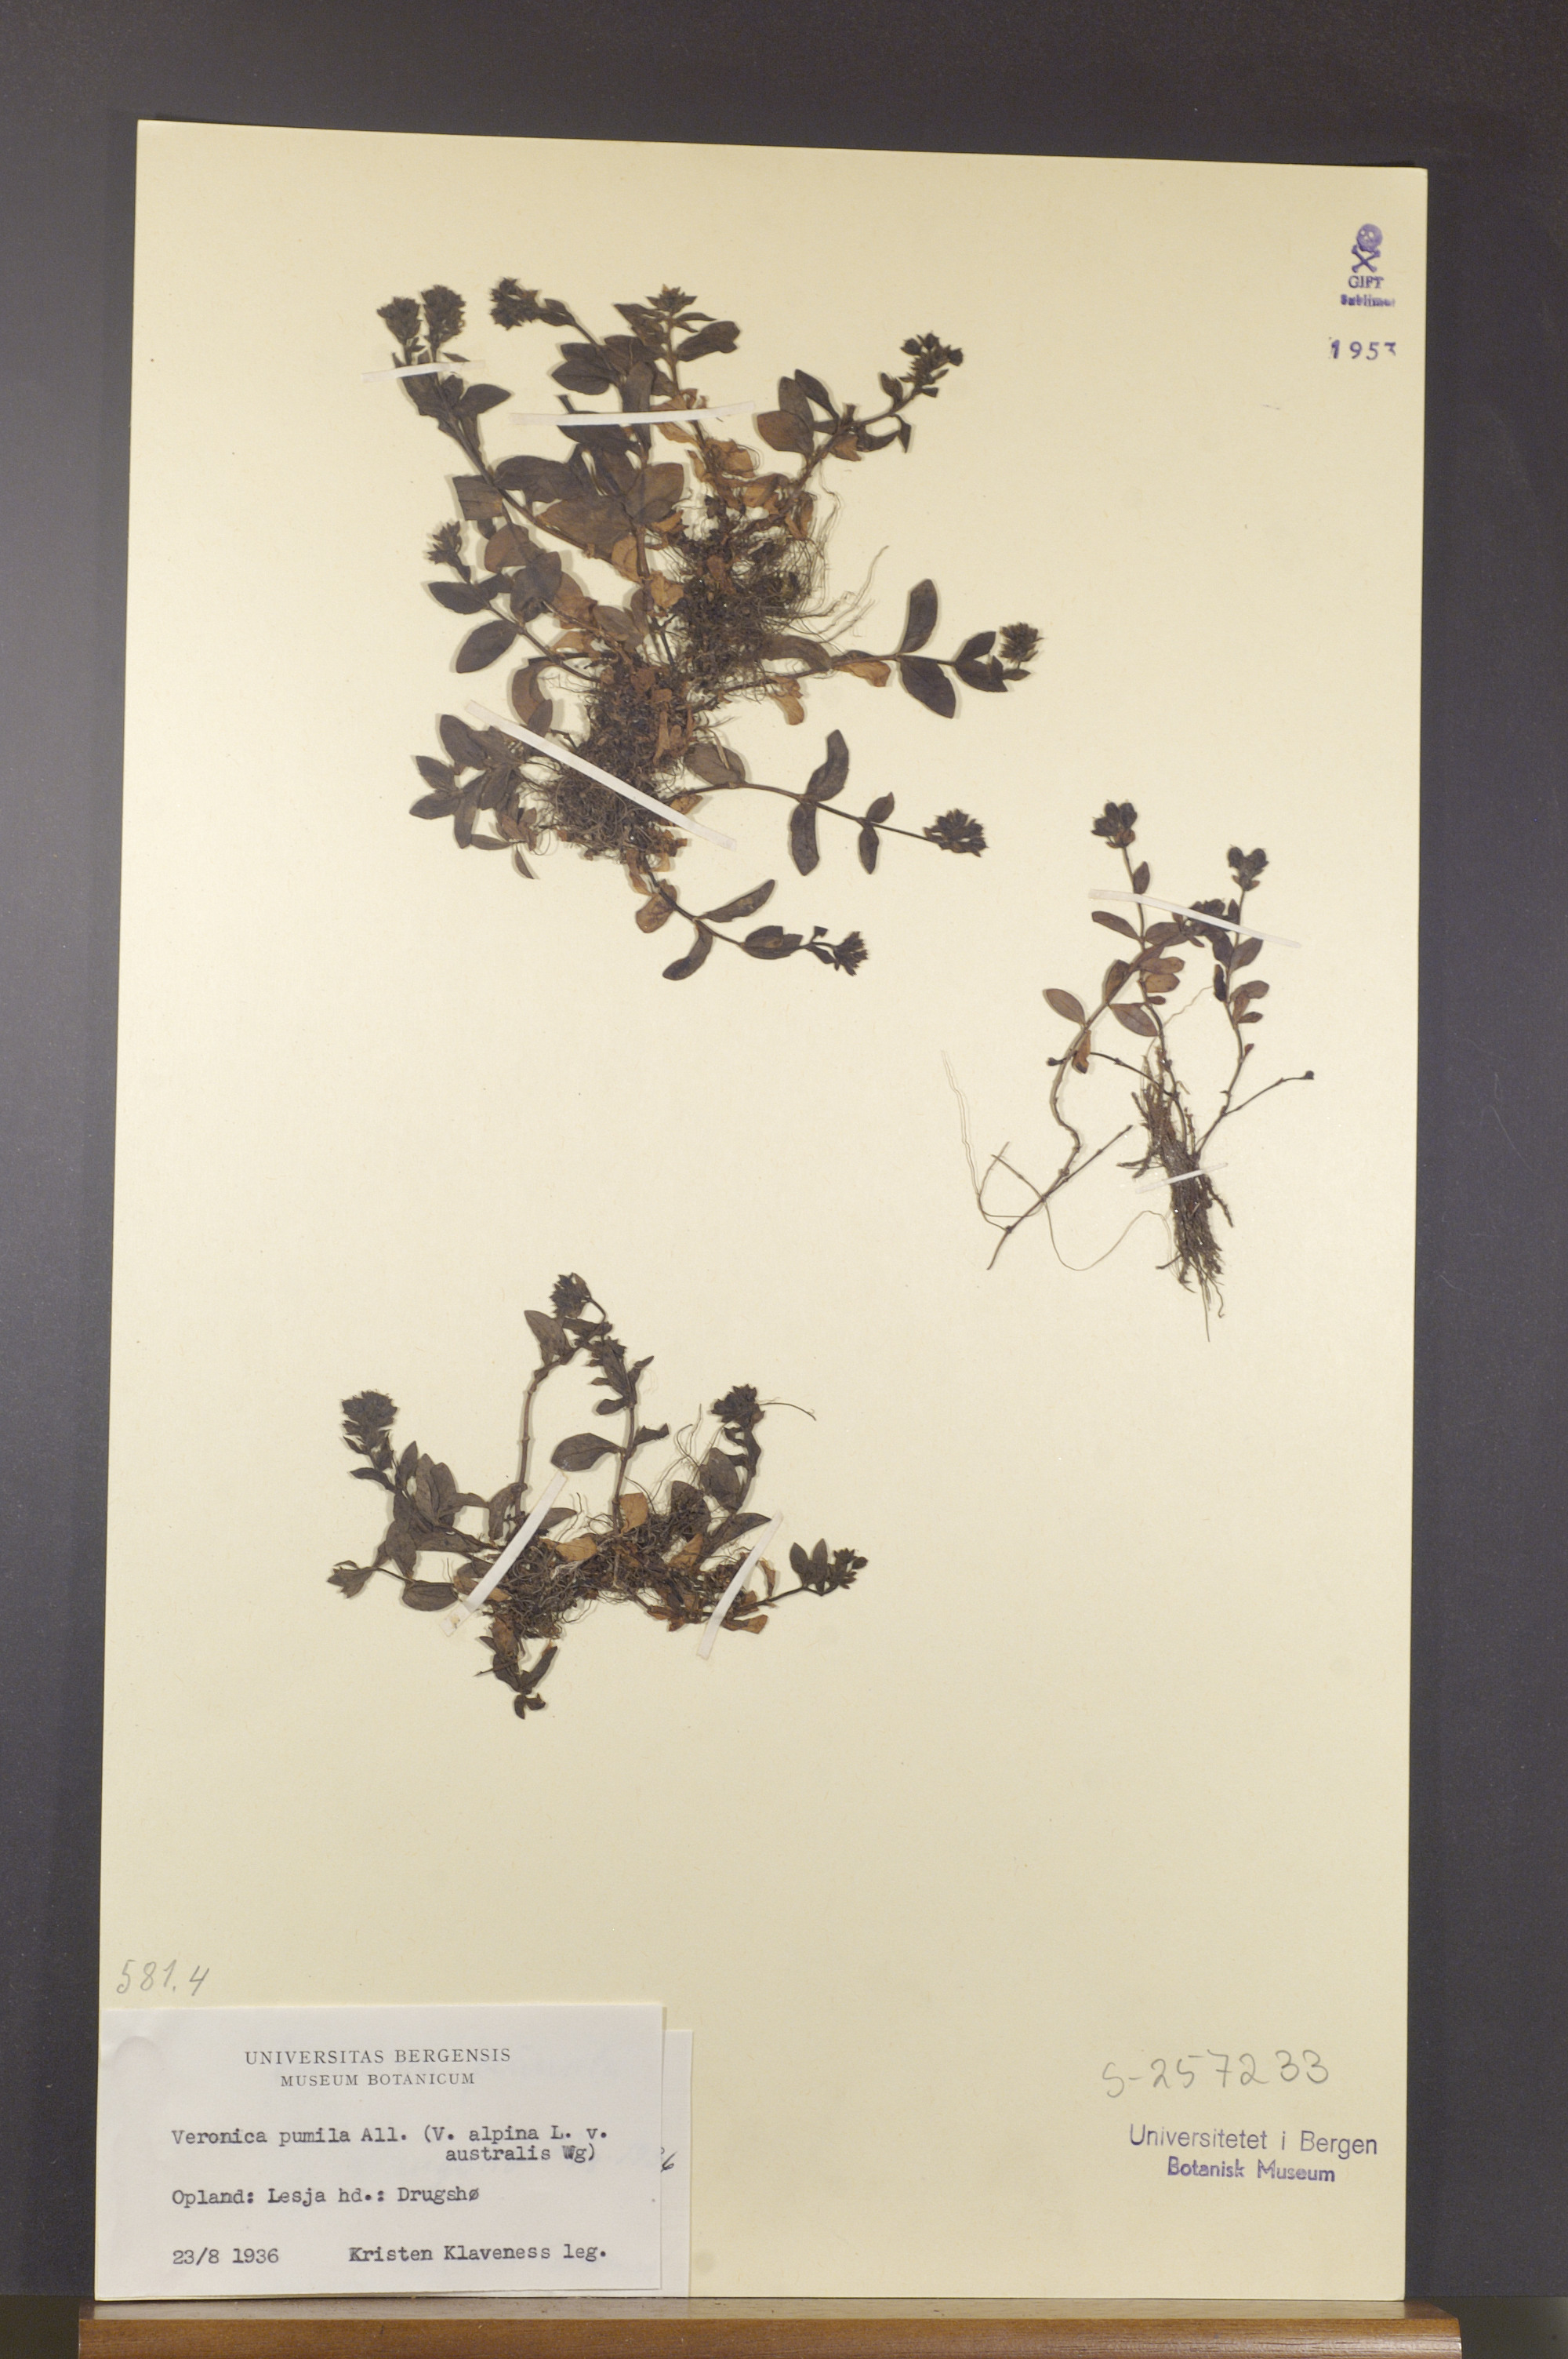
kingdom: Plantae
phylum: Tracheophyta
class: Magnoliopsida
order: Lamiales
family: Plantaginaceae
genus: Veronica
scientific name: Veronica alpina
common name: Alpine speedwell
